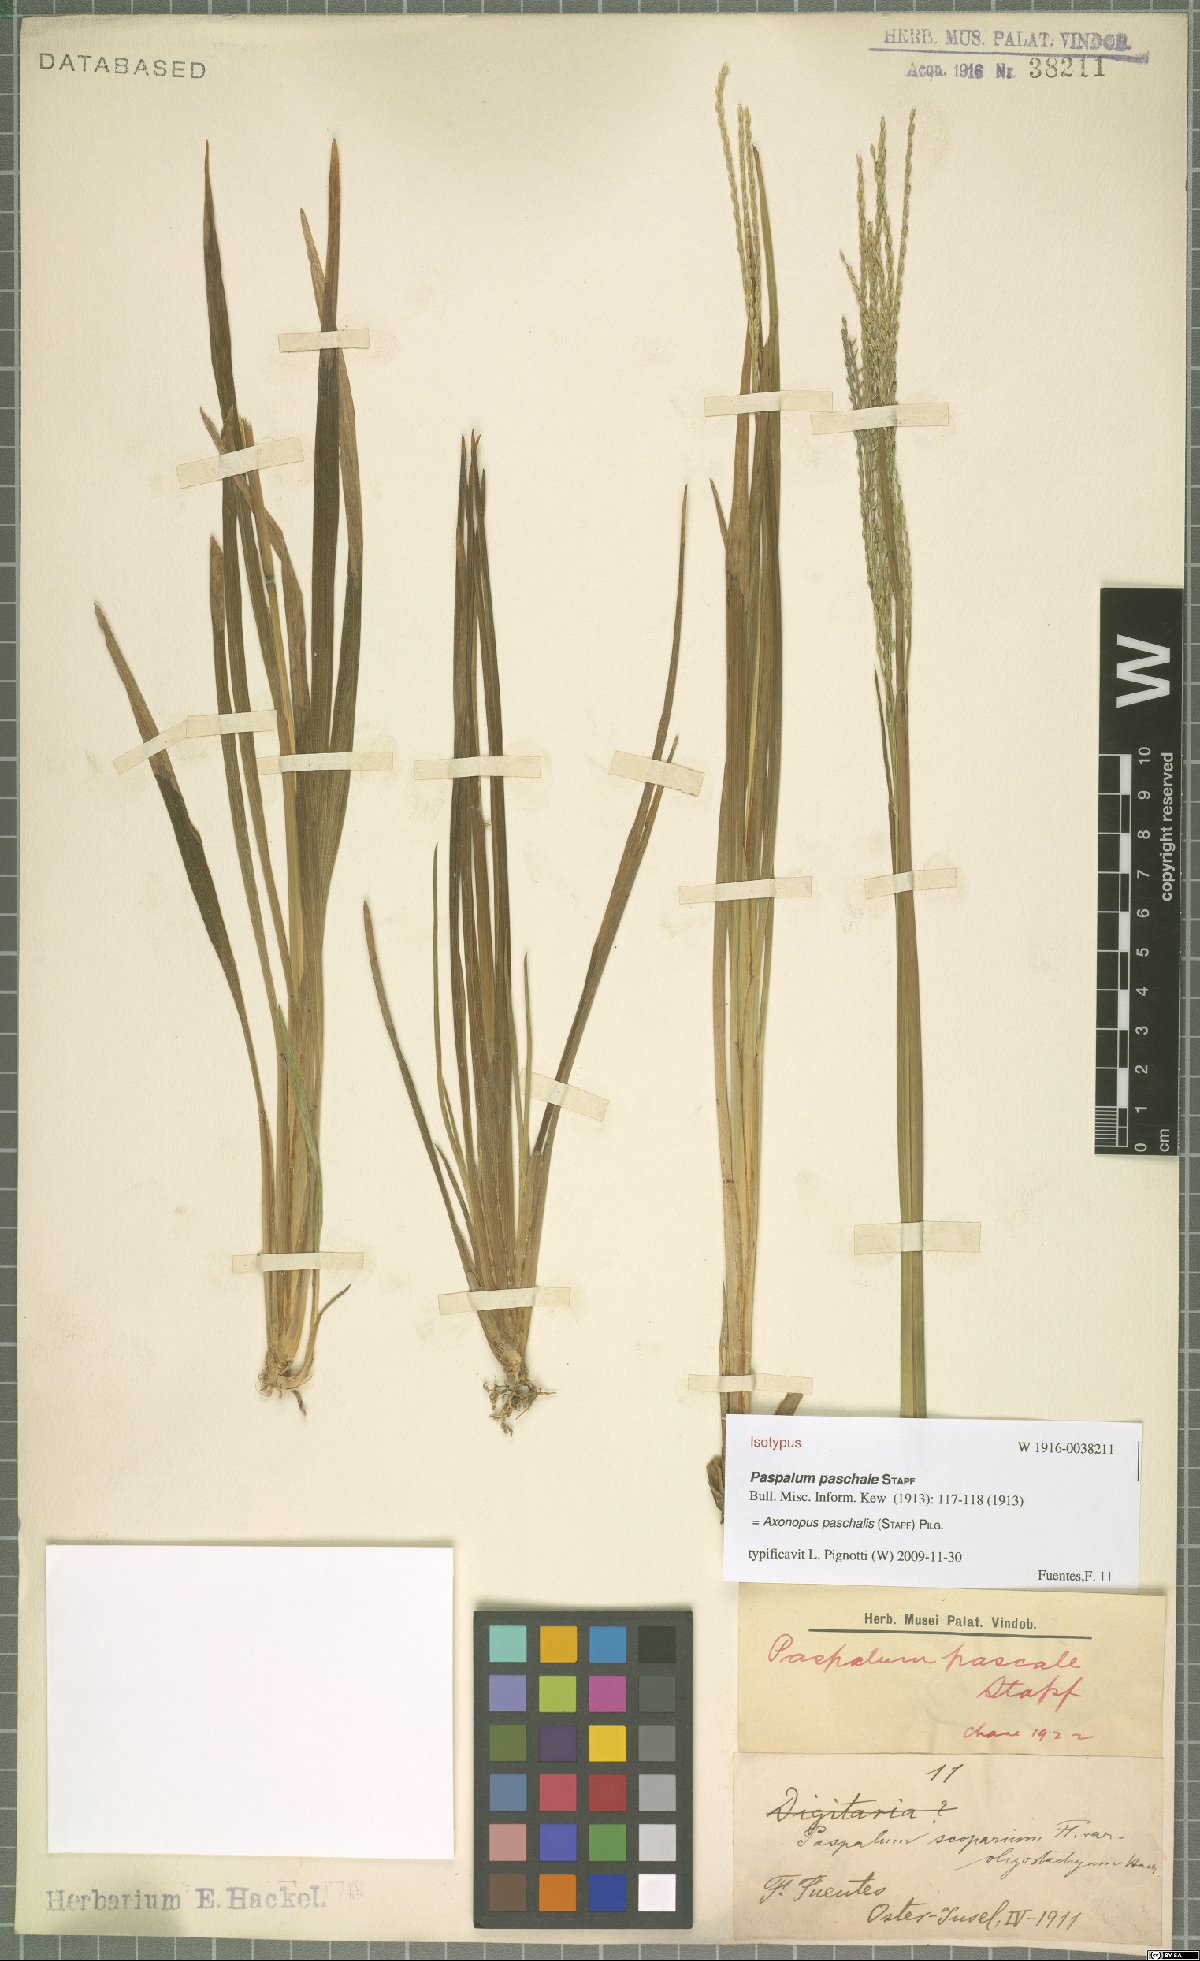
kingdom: Plantae
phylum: Tracheophyta
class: Liliopsida
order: Poales
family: Poaceae
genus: Axonopus
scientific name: Axonopus paschalis
